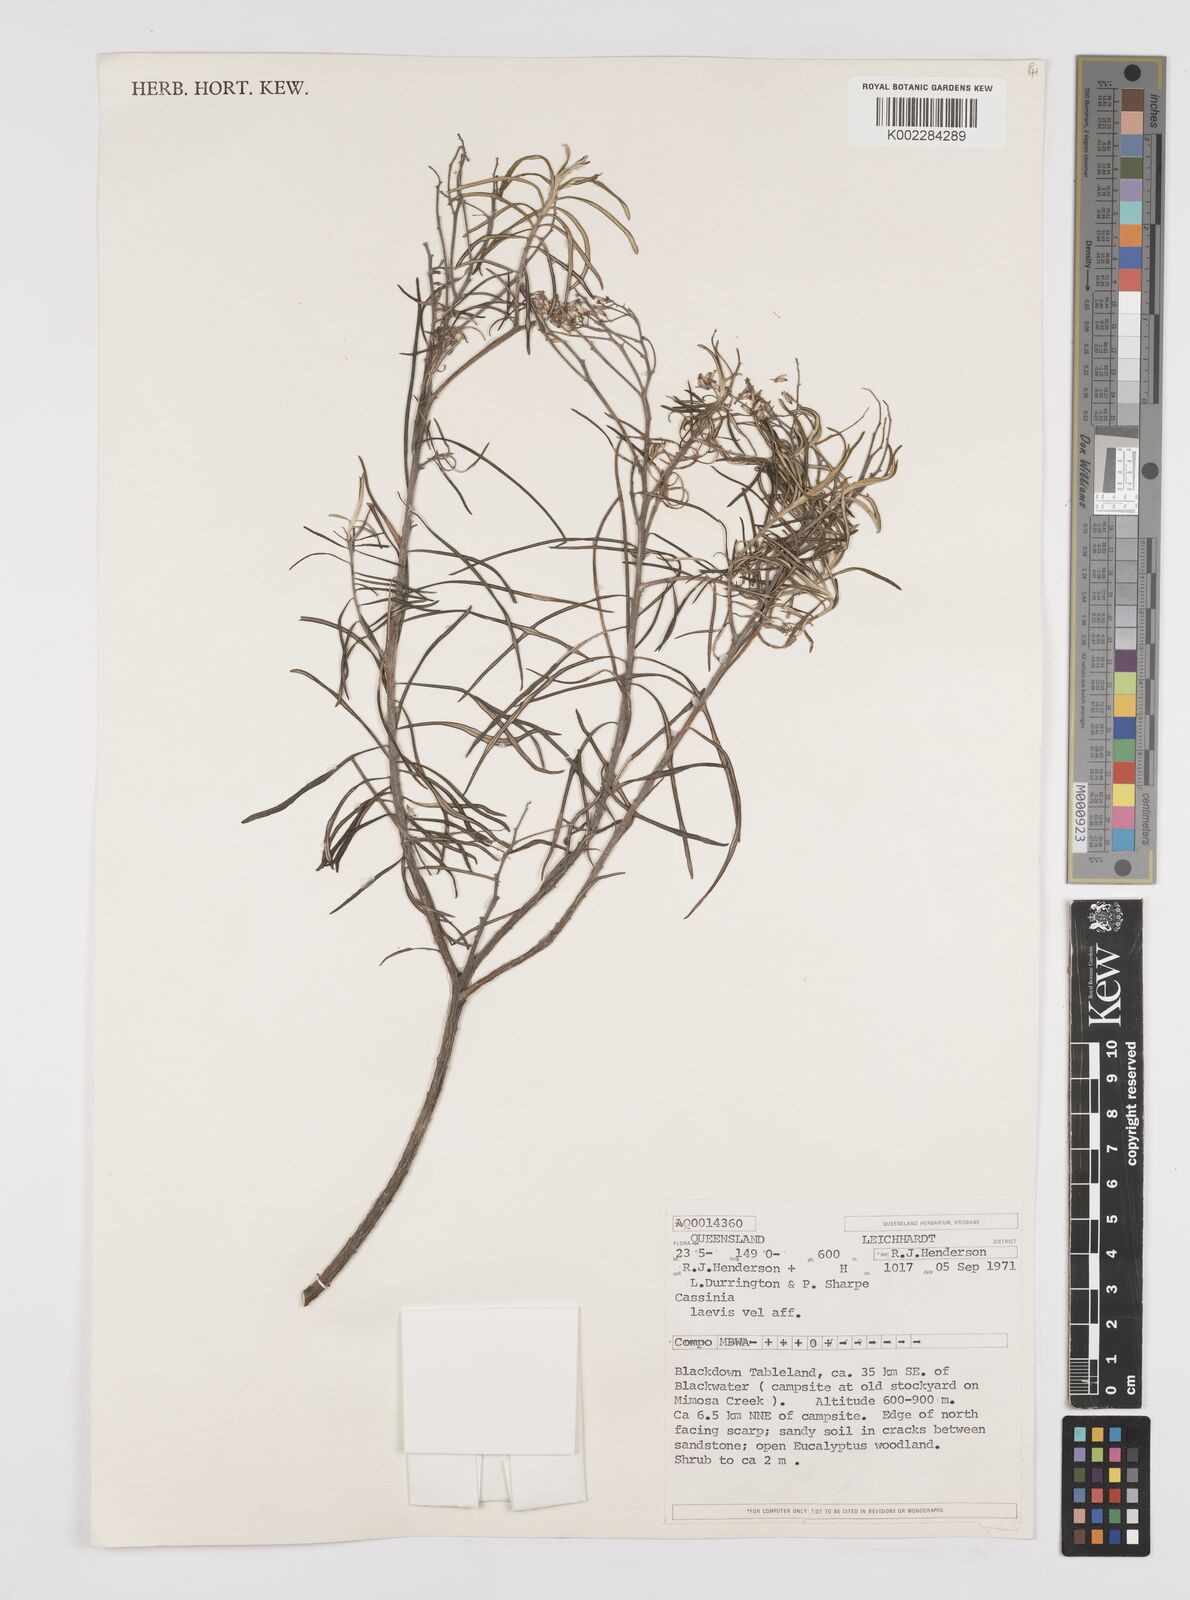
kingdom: Plantae
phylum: Tracheophyta
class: Magnoliopsida
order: Asterales
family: Asteraceae
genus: Cassinia
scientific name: Cassinia laevis
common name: Coughbush
